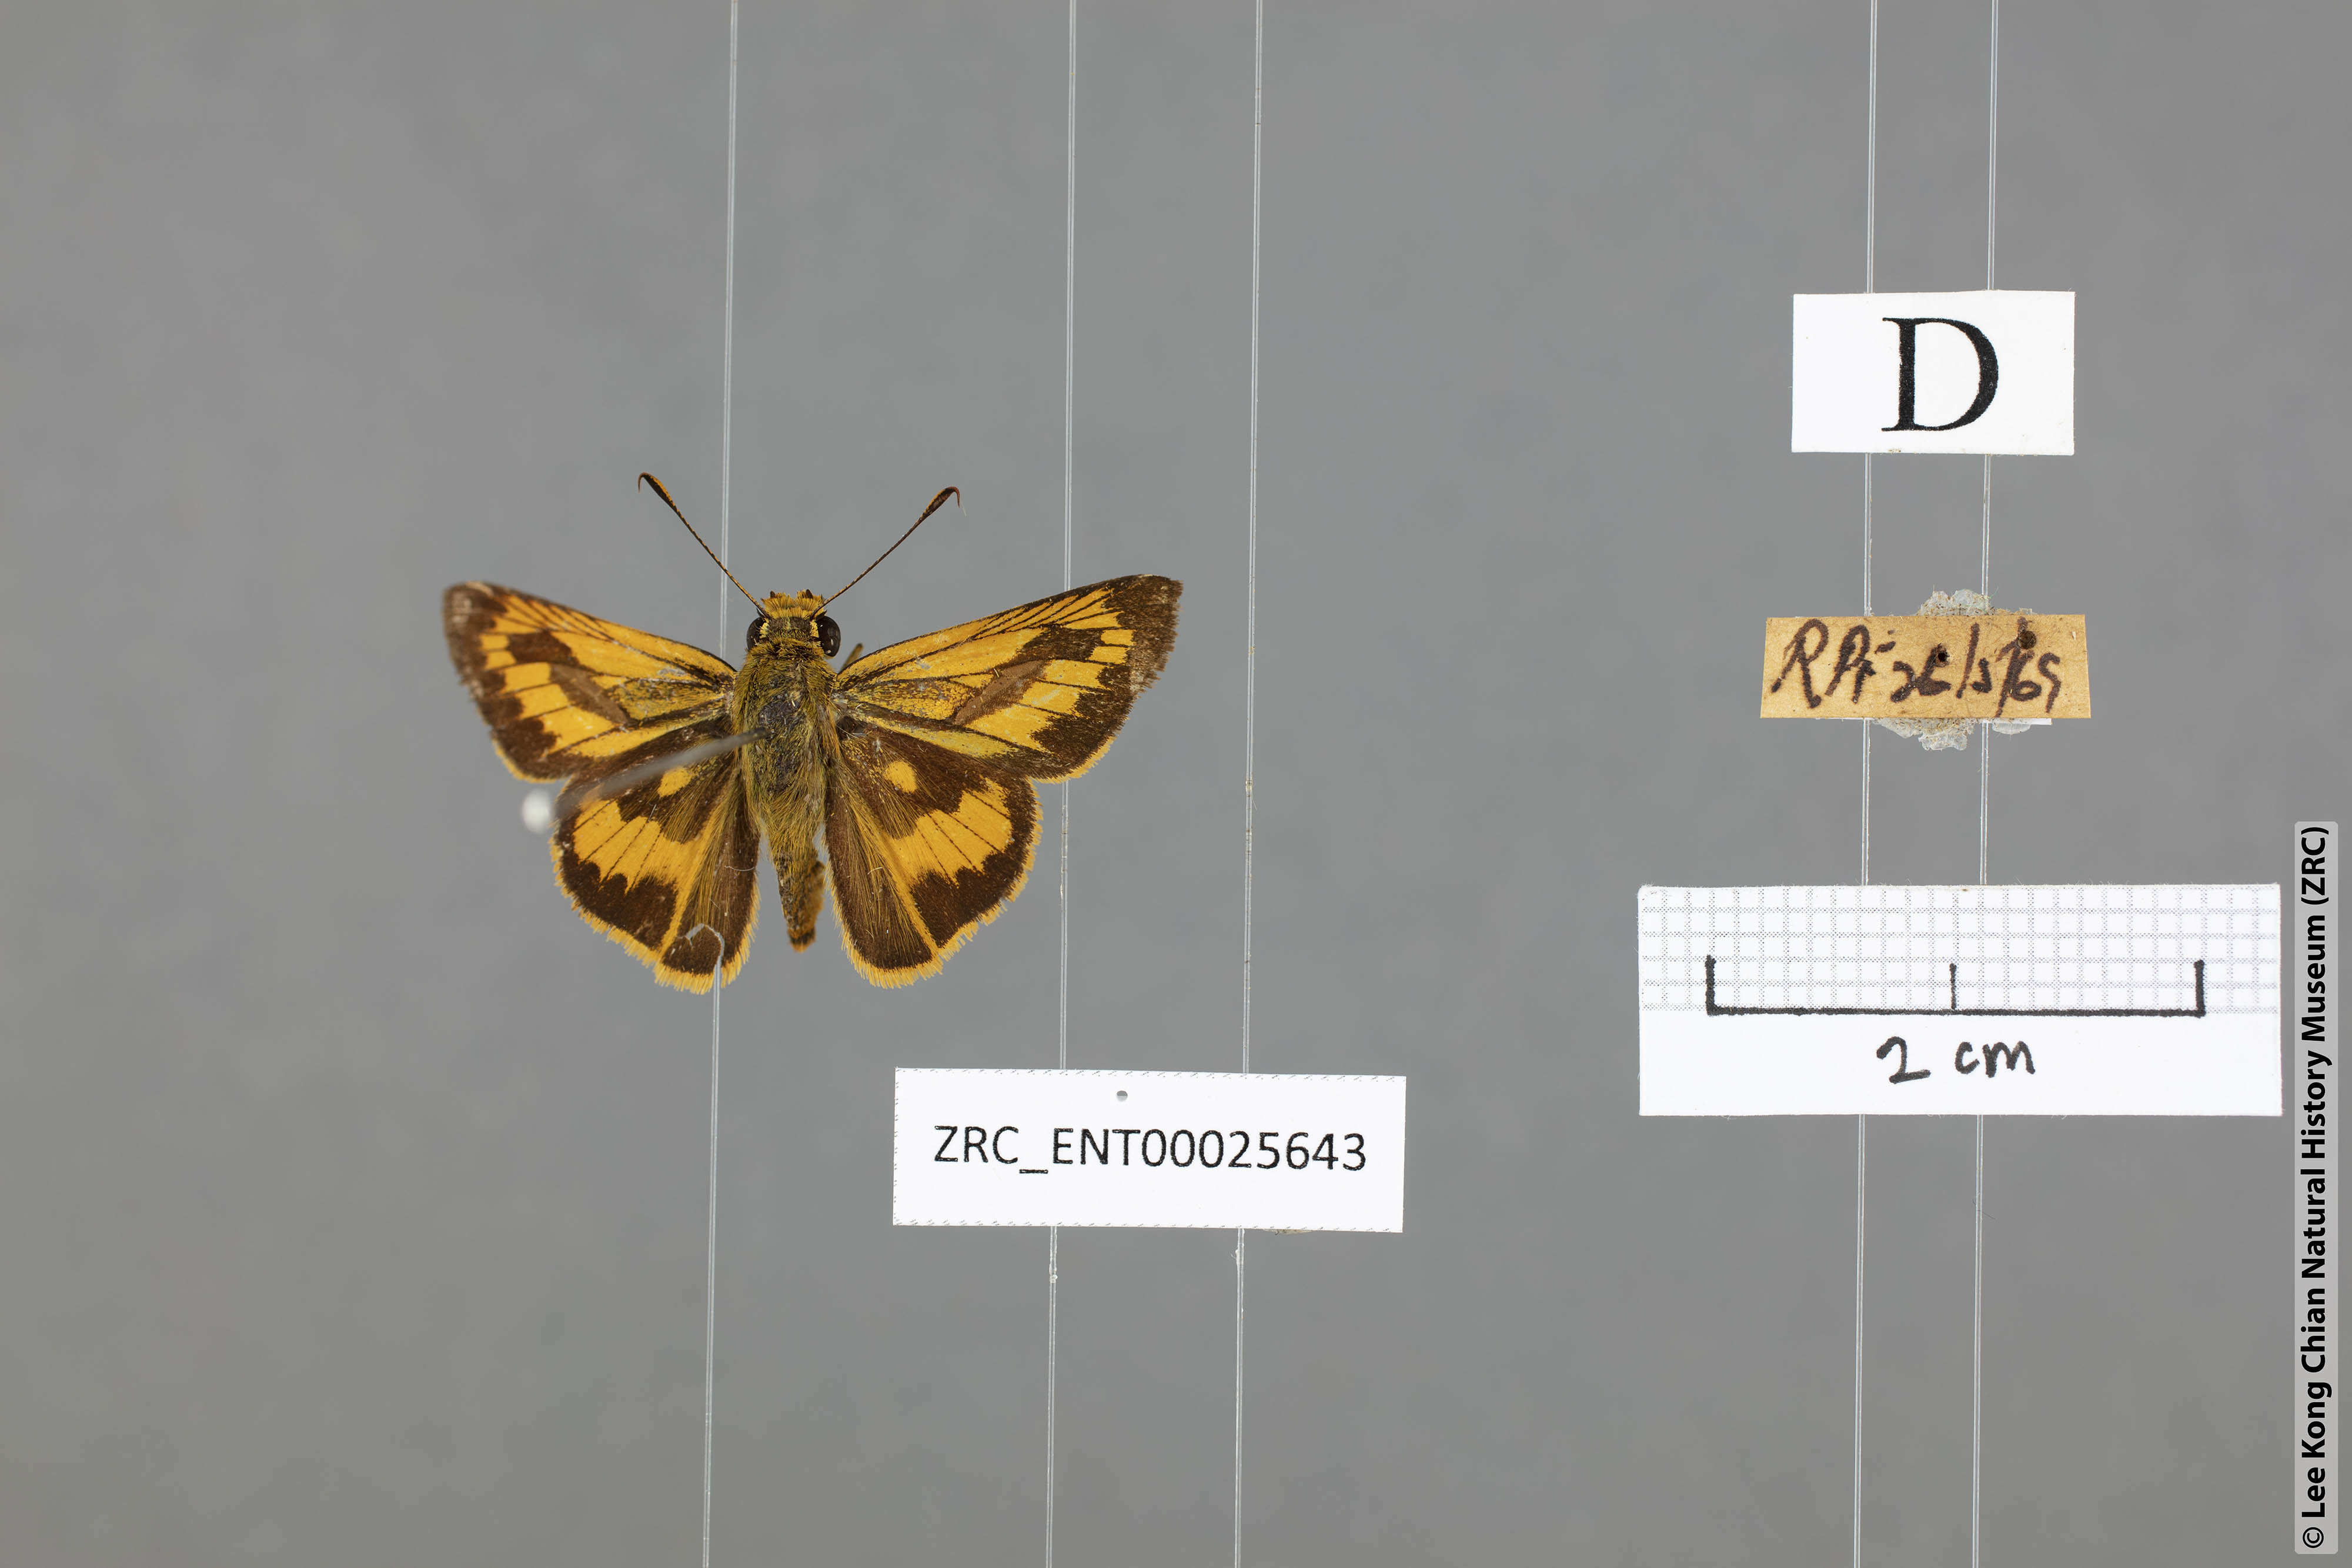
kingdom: Animalia
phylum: Arthropoda
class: Insecta
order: Lepidoptera
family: Hesperiidae
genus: Telicota
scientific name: Telicota besta
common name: Hainan palm dart
